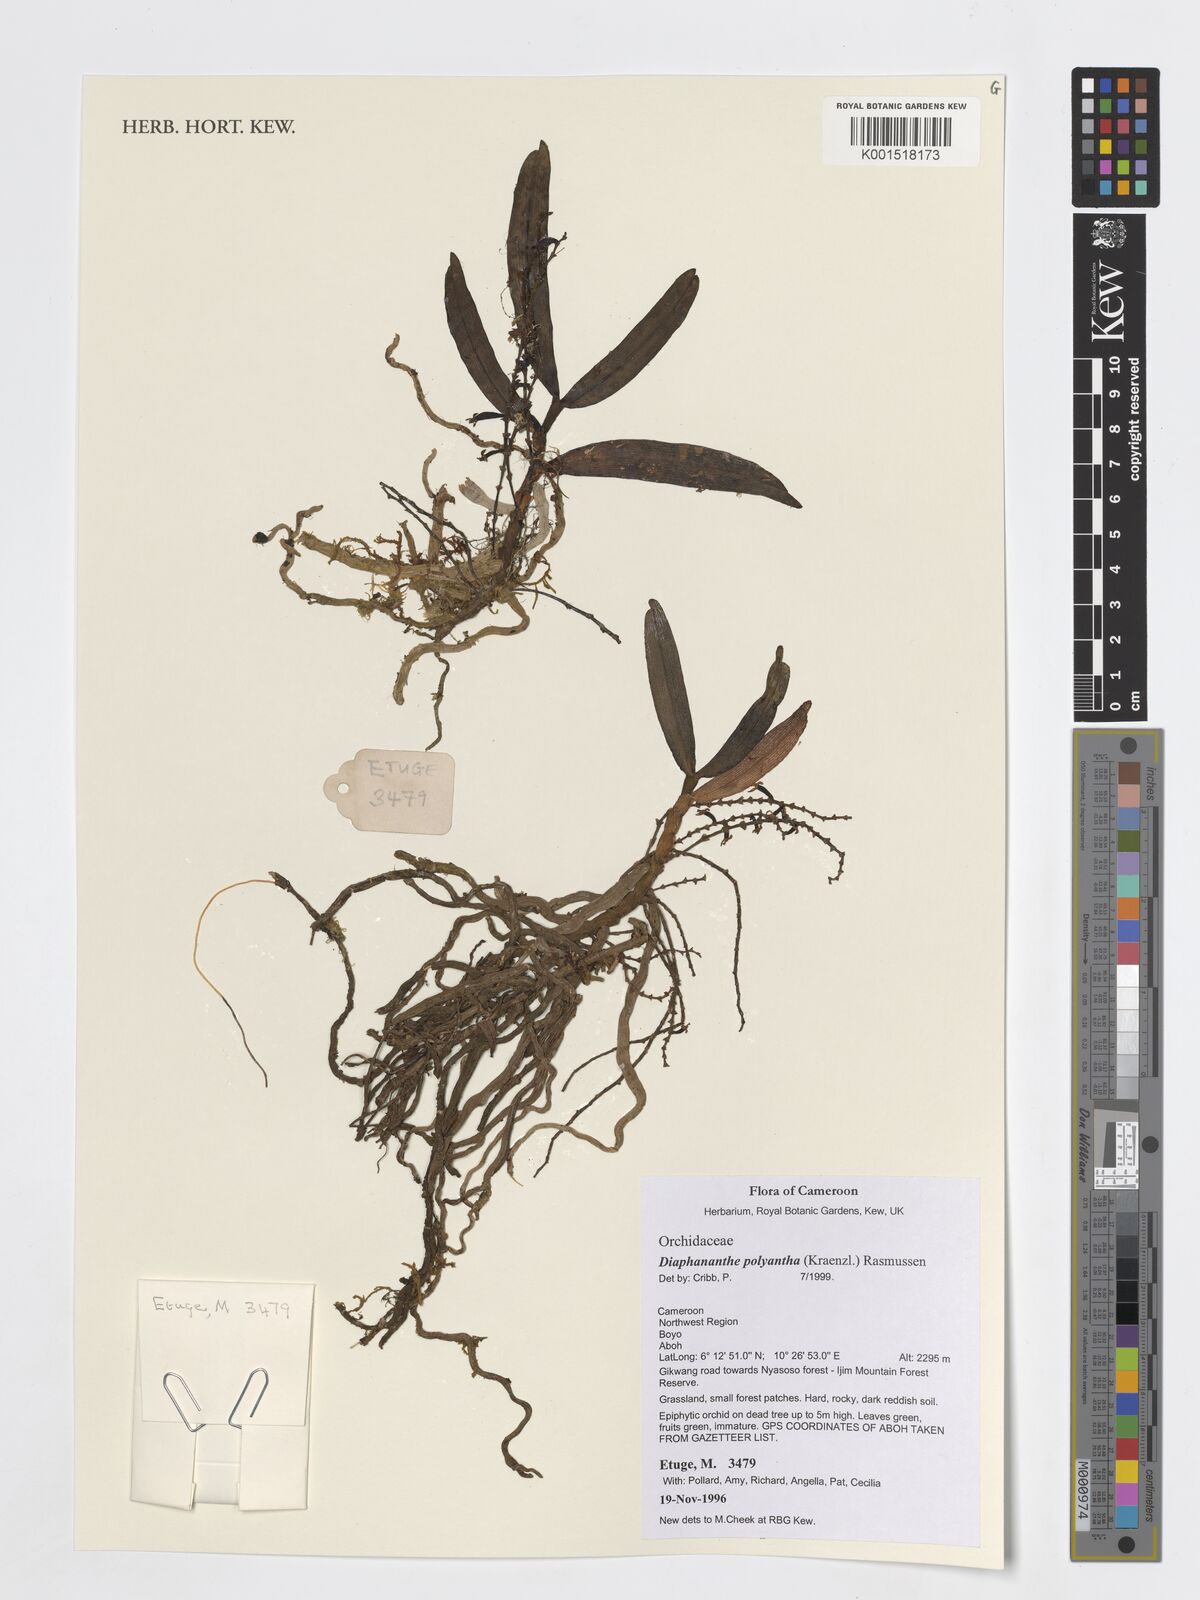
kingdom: Plantae
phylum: Tracheophyta
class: Liliopsida
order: Asparagales
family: Orchidaceae
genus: Rhipidoglossum
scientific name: Rhipidoglossum polyanthum
